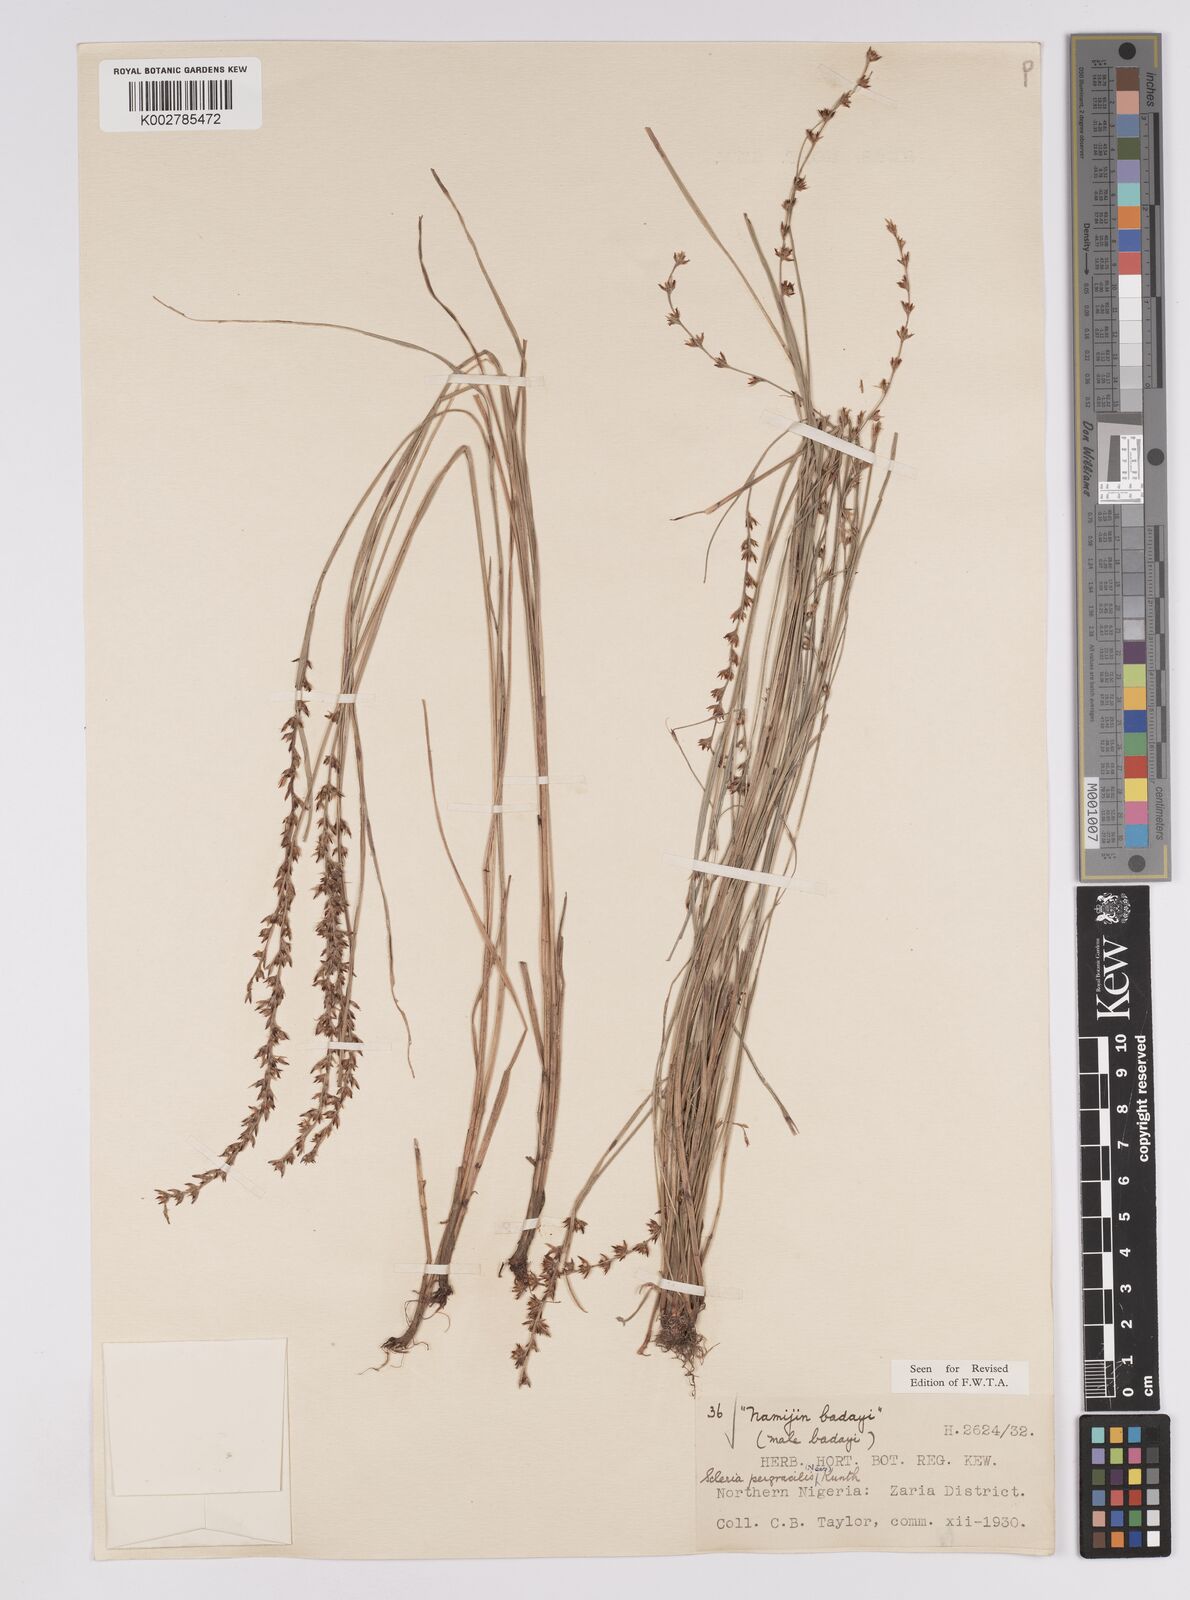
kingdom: Plantae
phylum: Tracheophyta
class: Liliopsida
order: Poales
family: Cyperaceae
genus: Scleria
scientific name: Scleria pergracilis
